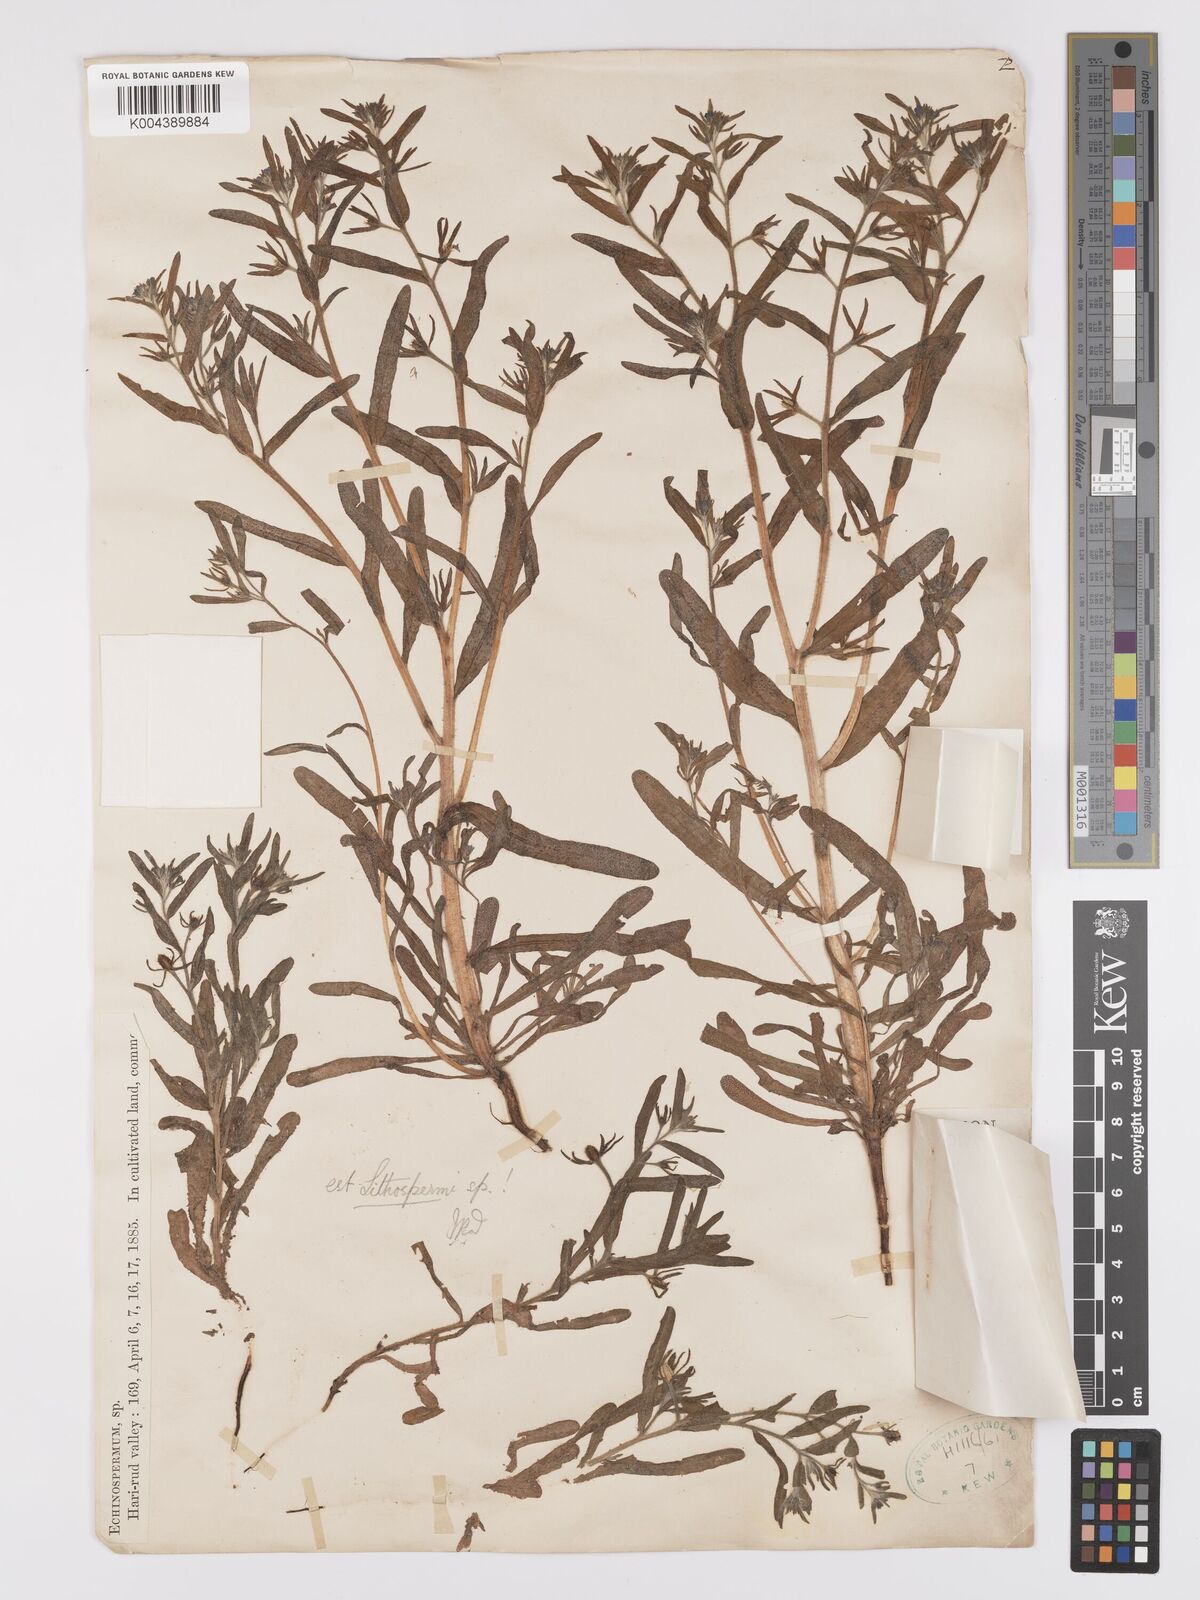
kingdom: Plantae
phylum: Tracheophyta
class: Magnoliopsida
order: Boraginales
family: Boraginaceae
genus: Lappula
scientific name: Lappula
